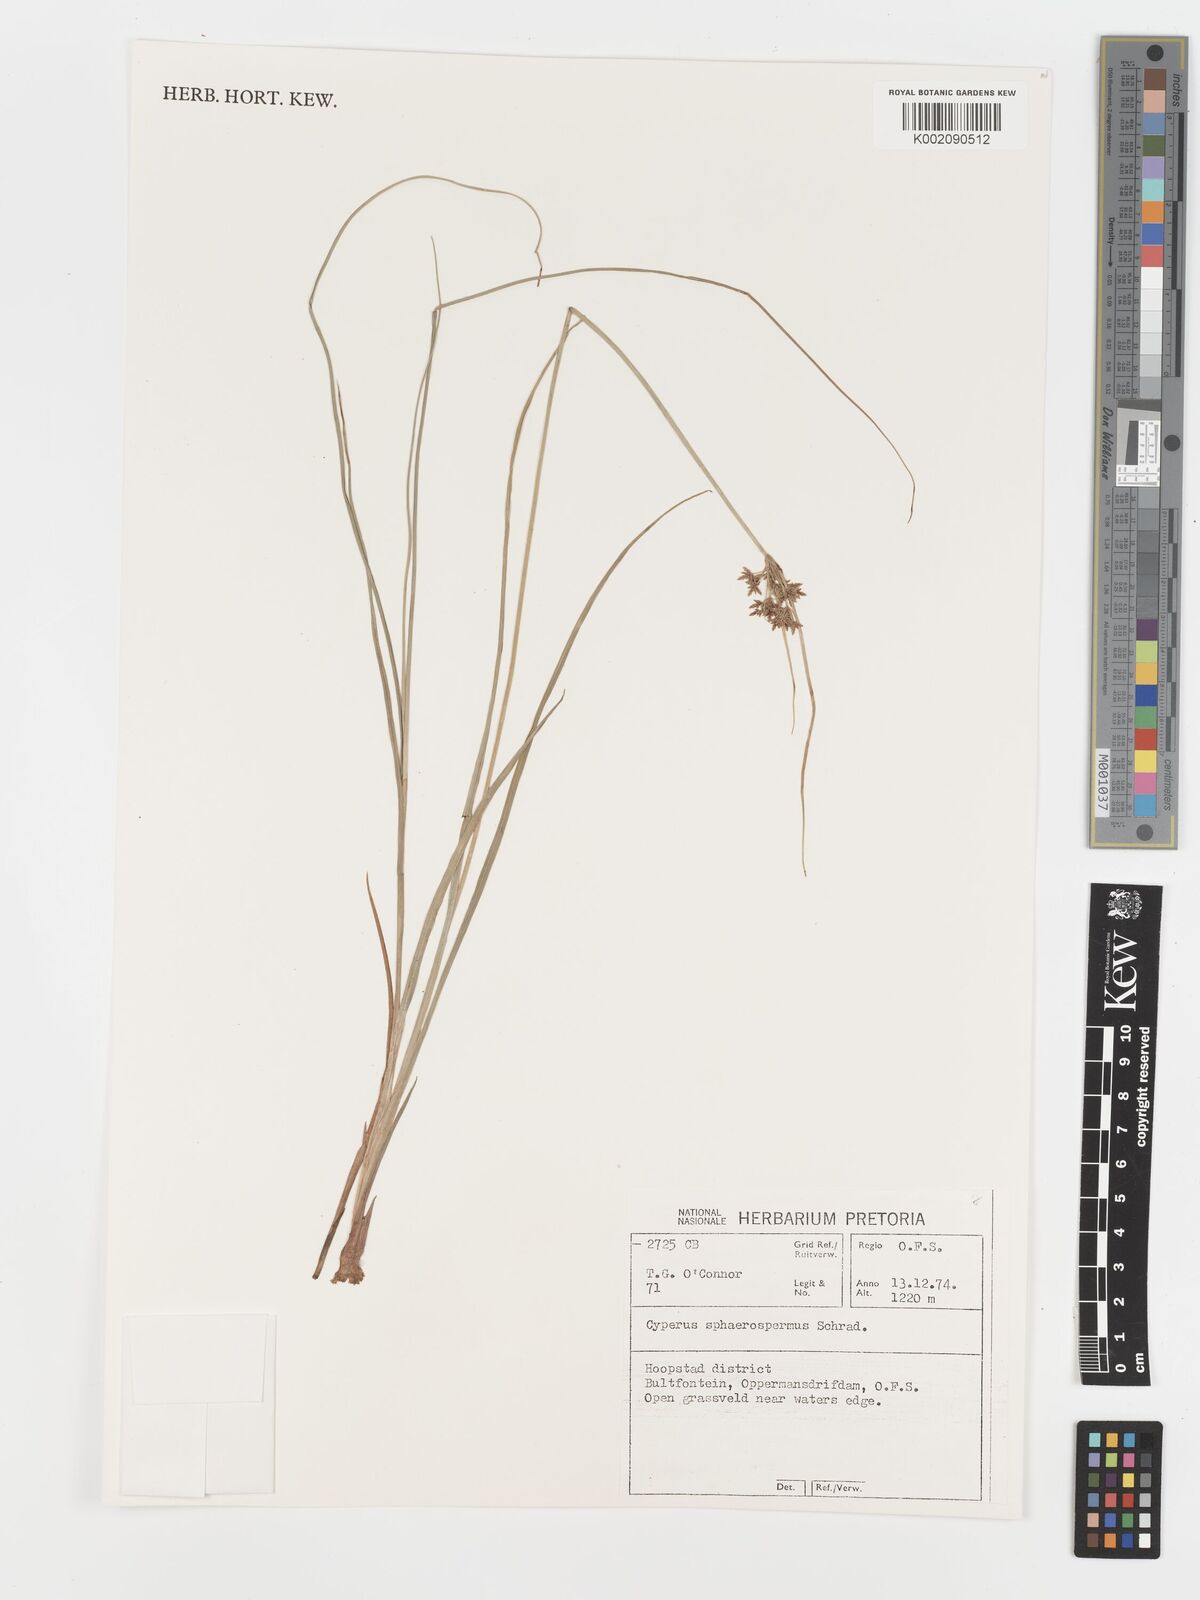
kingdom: Plantae
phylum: Tracheophyta
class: Liliopsida
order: Poales
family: Cyperaceae
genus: Cyperus
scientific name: Cyperus sphaerospermus
